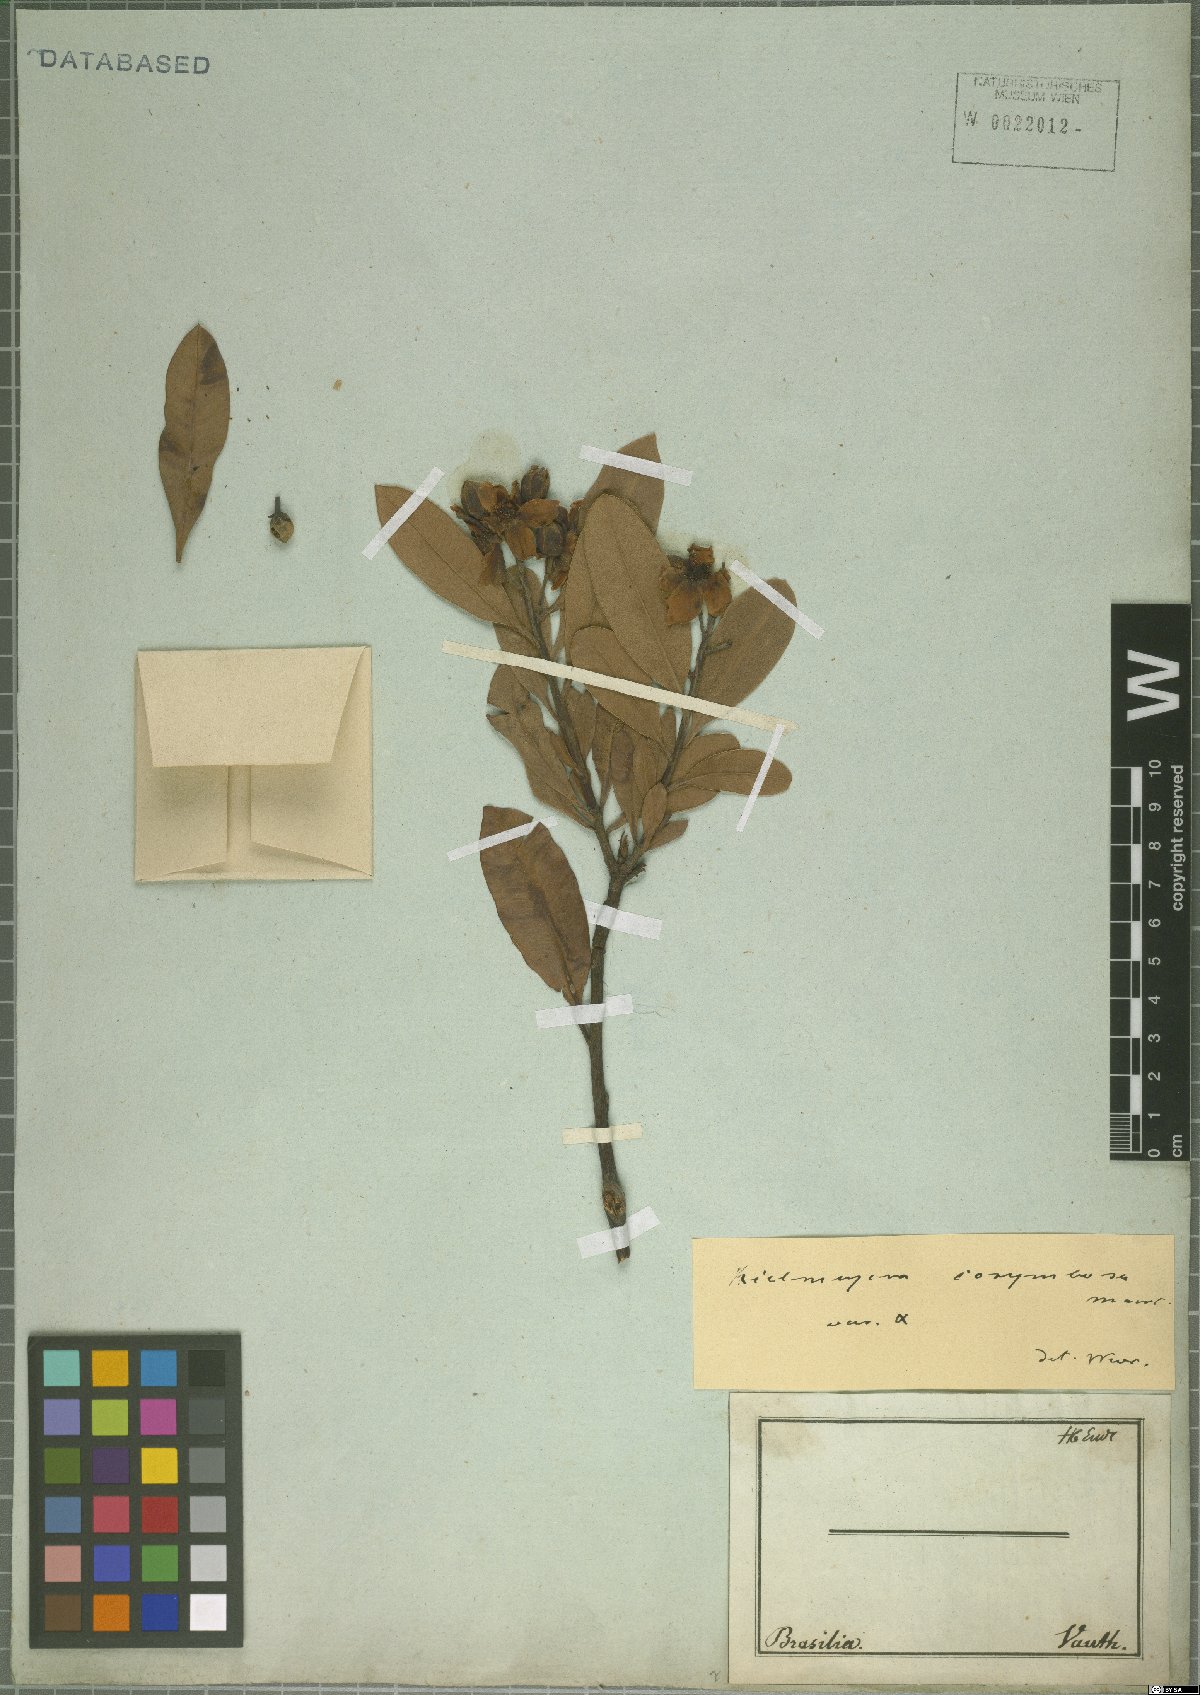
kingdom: Plantae
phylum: Tracheophyta
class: Magnoliopsida
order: Malpighiales
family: Calophyllaceae
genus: Kielmeyera
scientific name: Kielmeyera corymbosa
